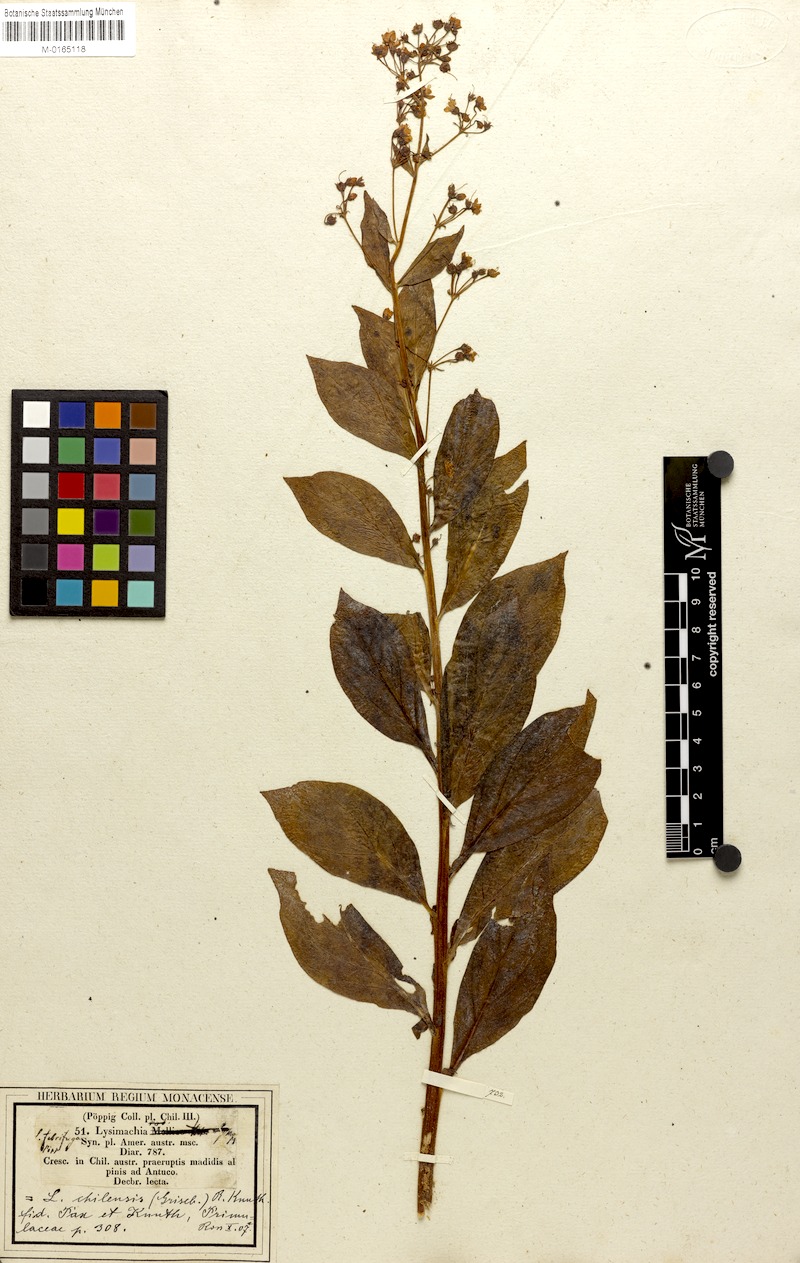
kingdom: Plantae
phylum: Tracheophyta
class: Magnoliopsida
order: Ericales
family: Primulaceae
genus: Lysimachia
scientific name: Lysimachia sertulata
